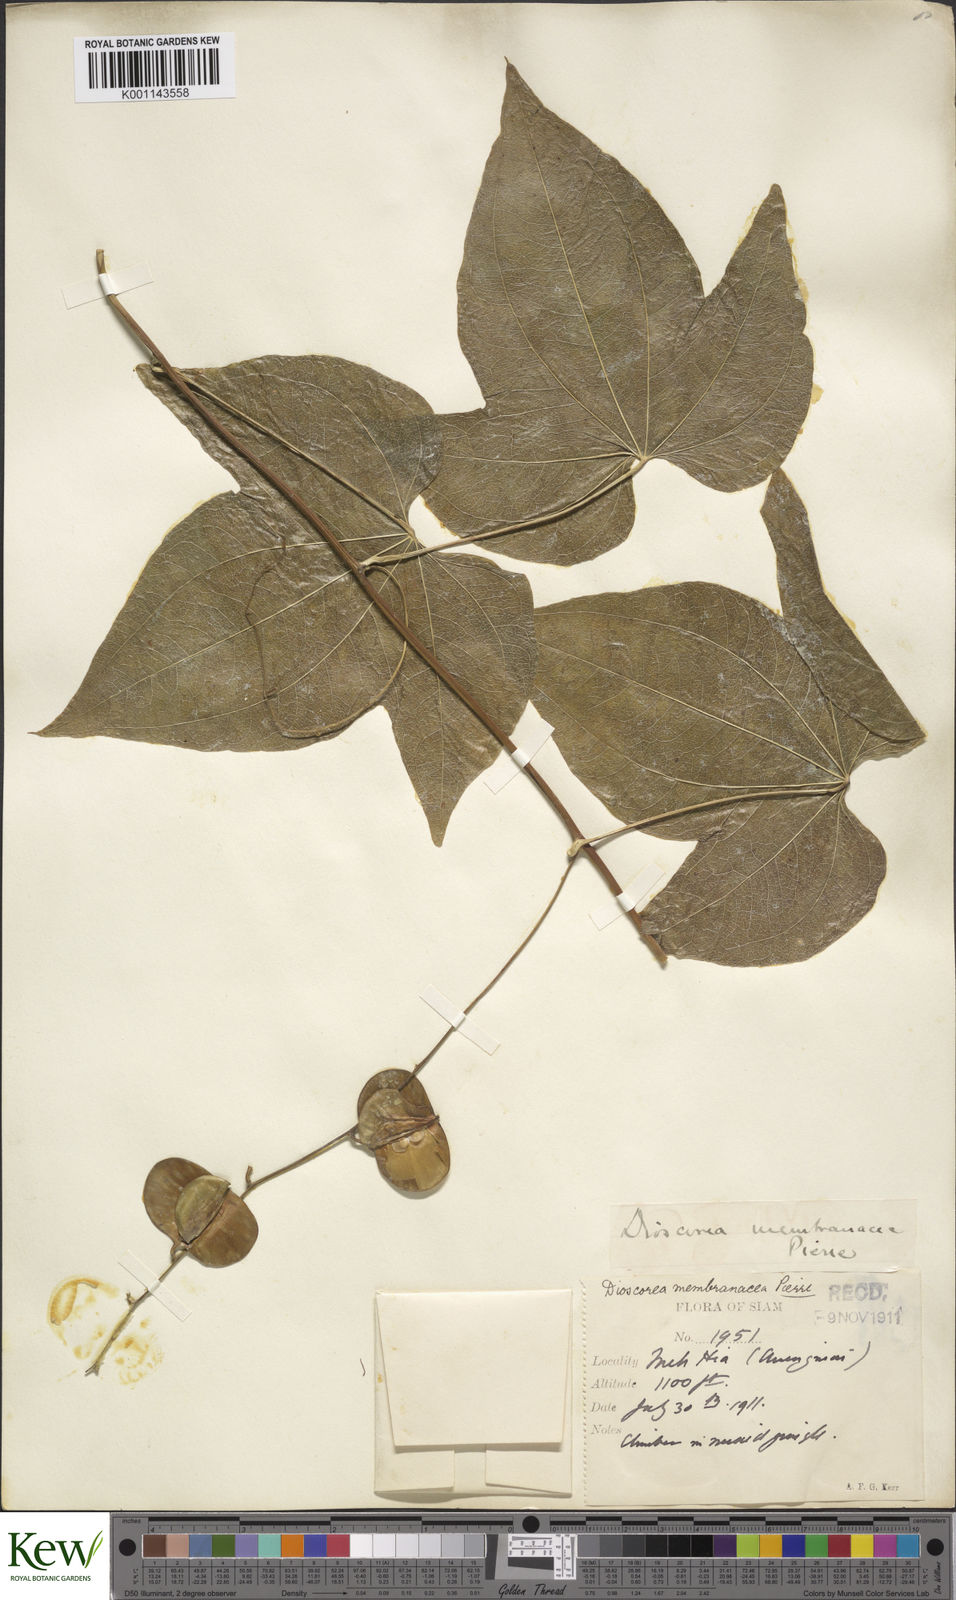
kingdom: Plantae
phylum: Tracheophyta
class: Liliopsida
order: Dioscoreales
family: Dioscoreaceae
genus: Dioscorea
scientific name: Dioscorea membranacea
